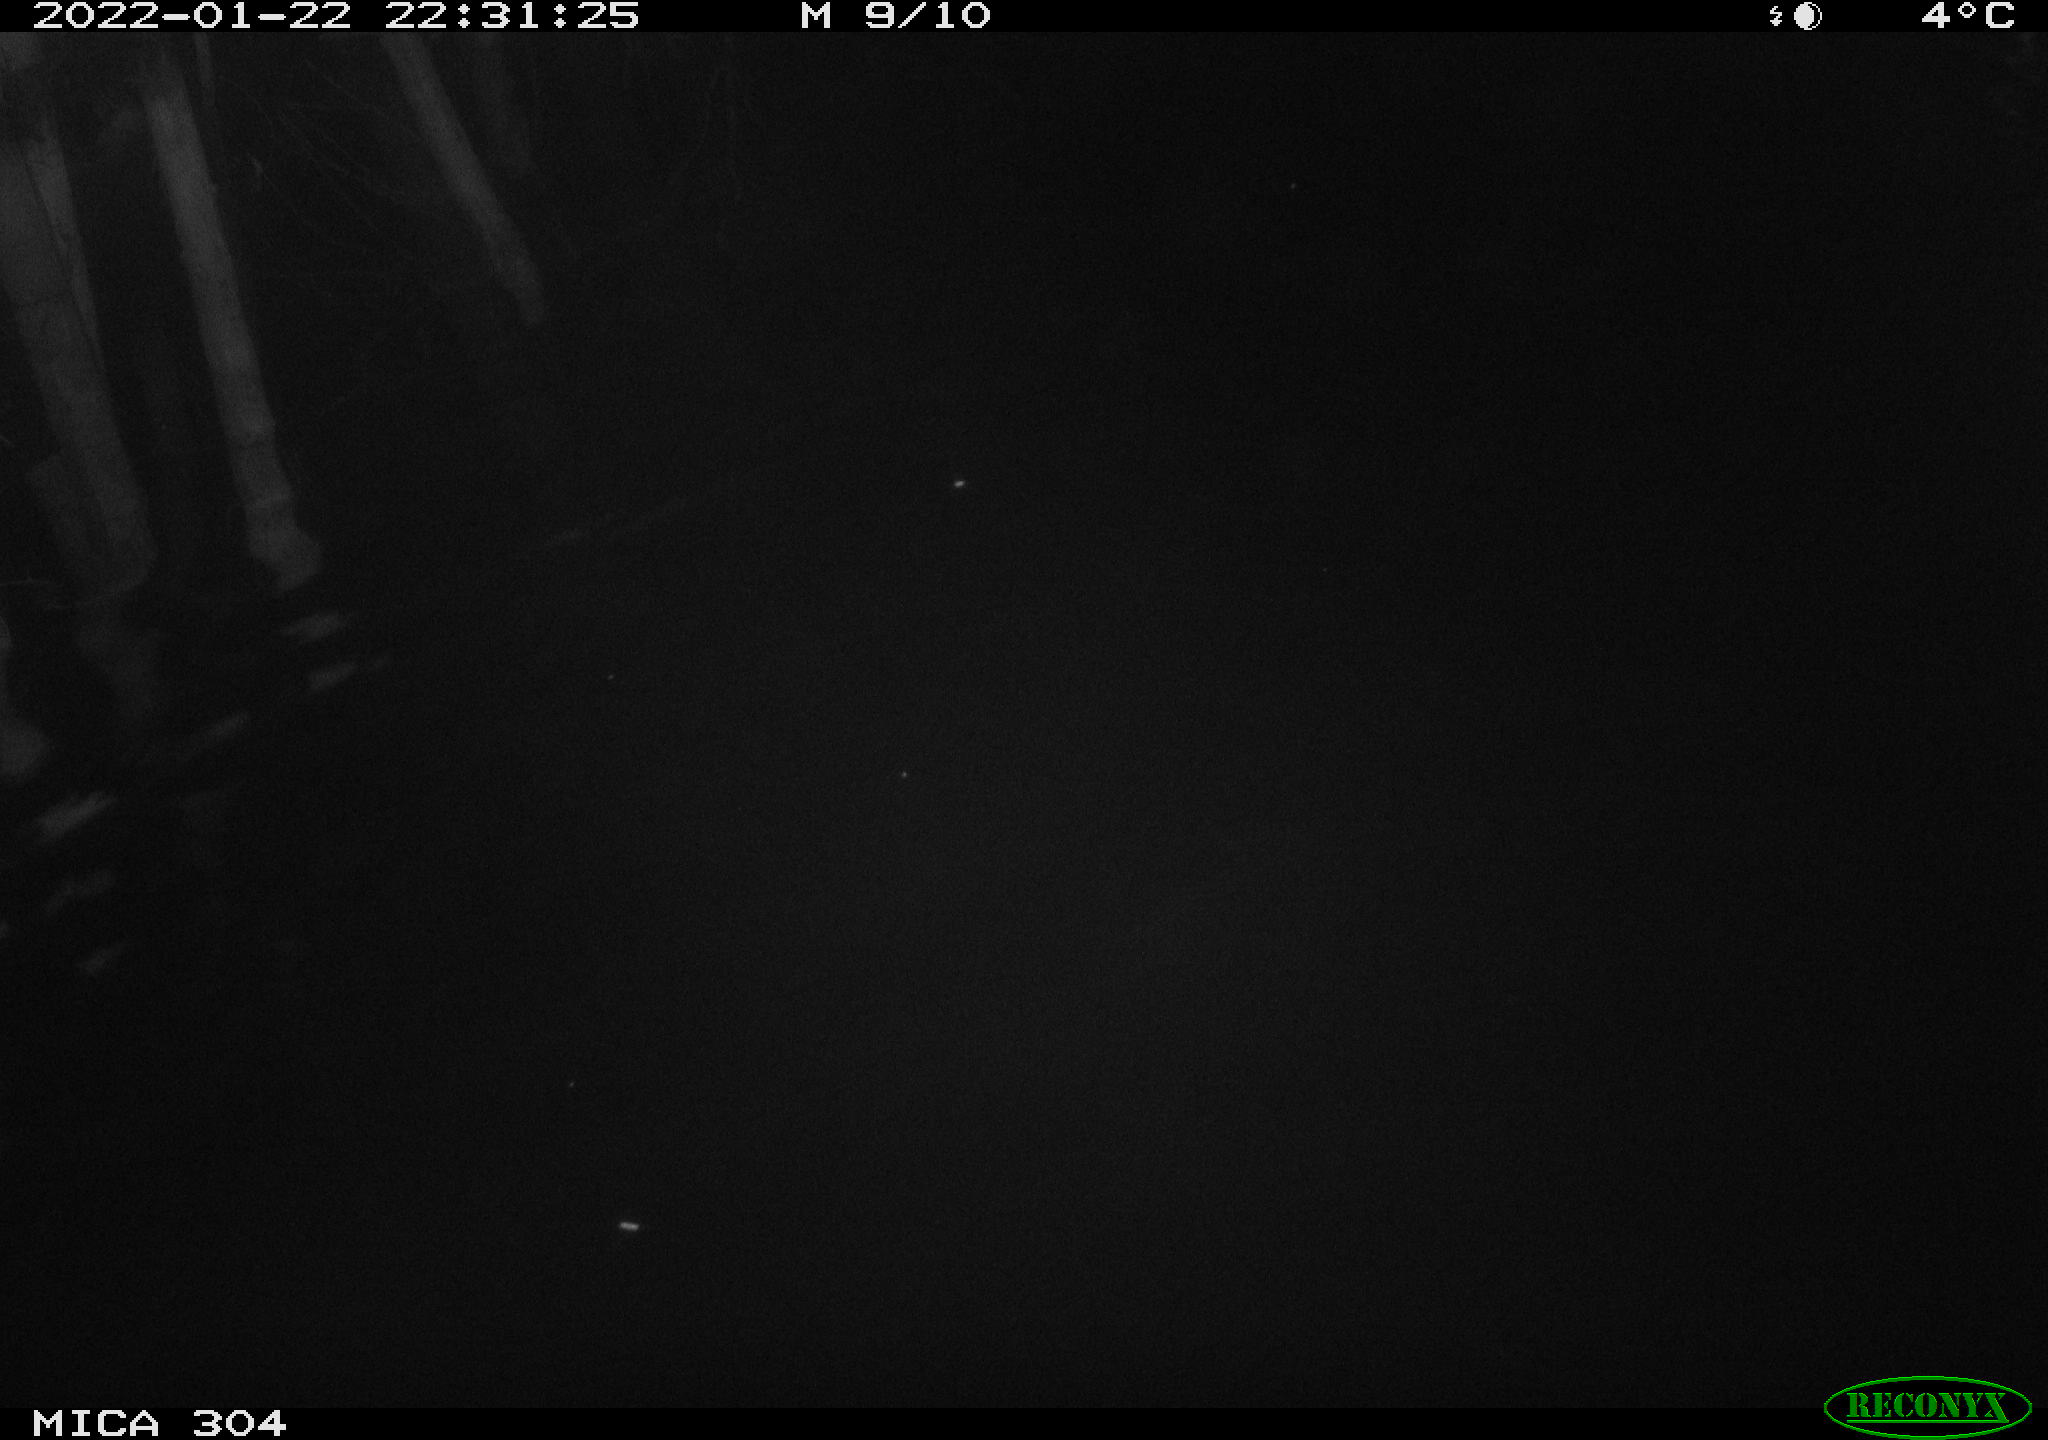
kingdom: Animalia
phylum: Chordata
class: Mammalia
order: Rodentia
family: Cricetidae
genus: Ondatra
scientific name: Ondatra zibethicus
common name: Muskrat
